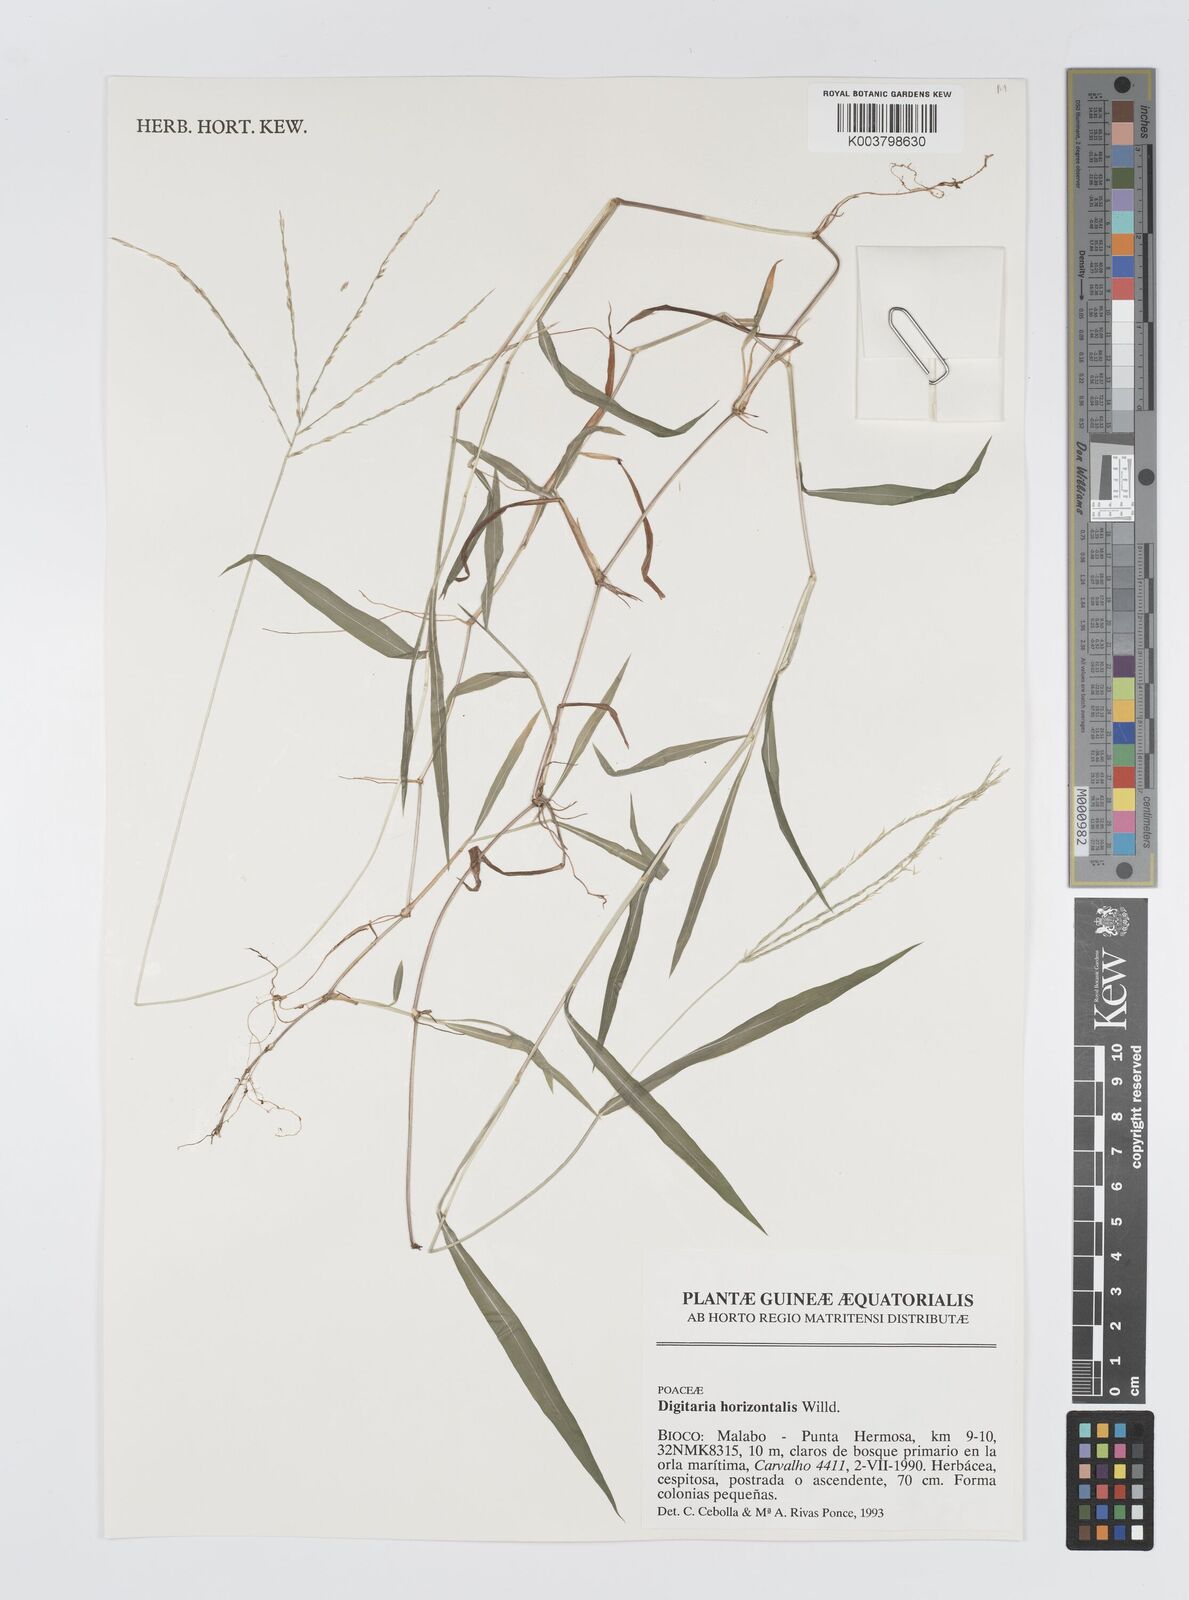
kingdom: Plantae
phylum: Tracheophyta
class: Liliopsida
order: Poales
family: Poaceae
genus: Digitaria
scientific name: Digitaria horizontalis
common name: Jamaican crabgrass
